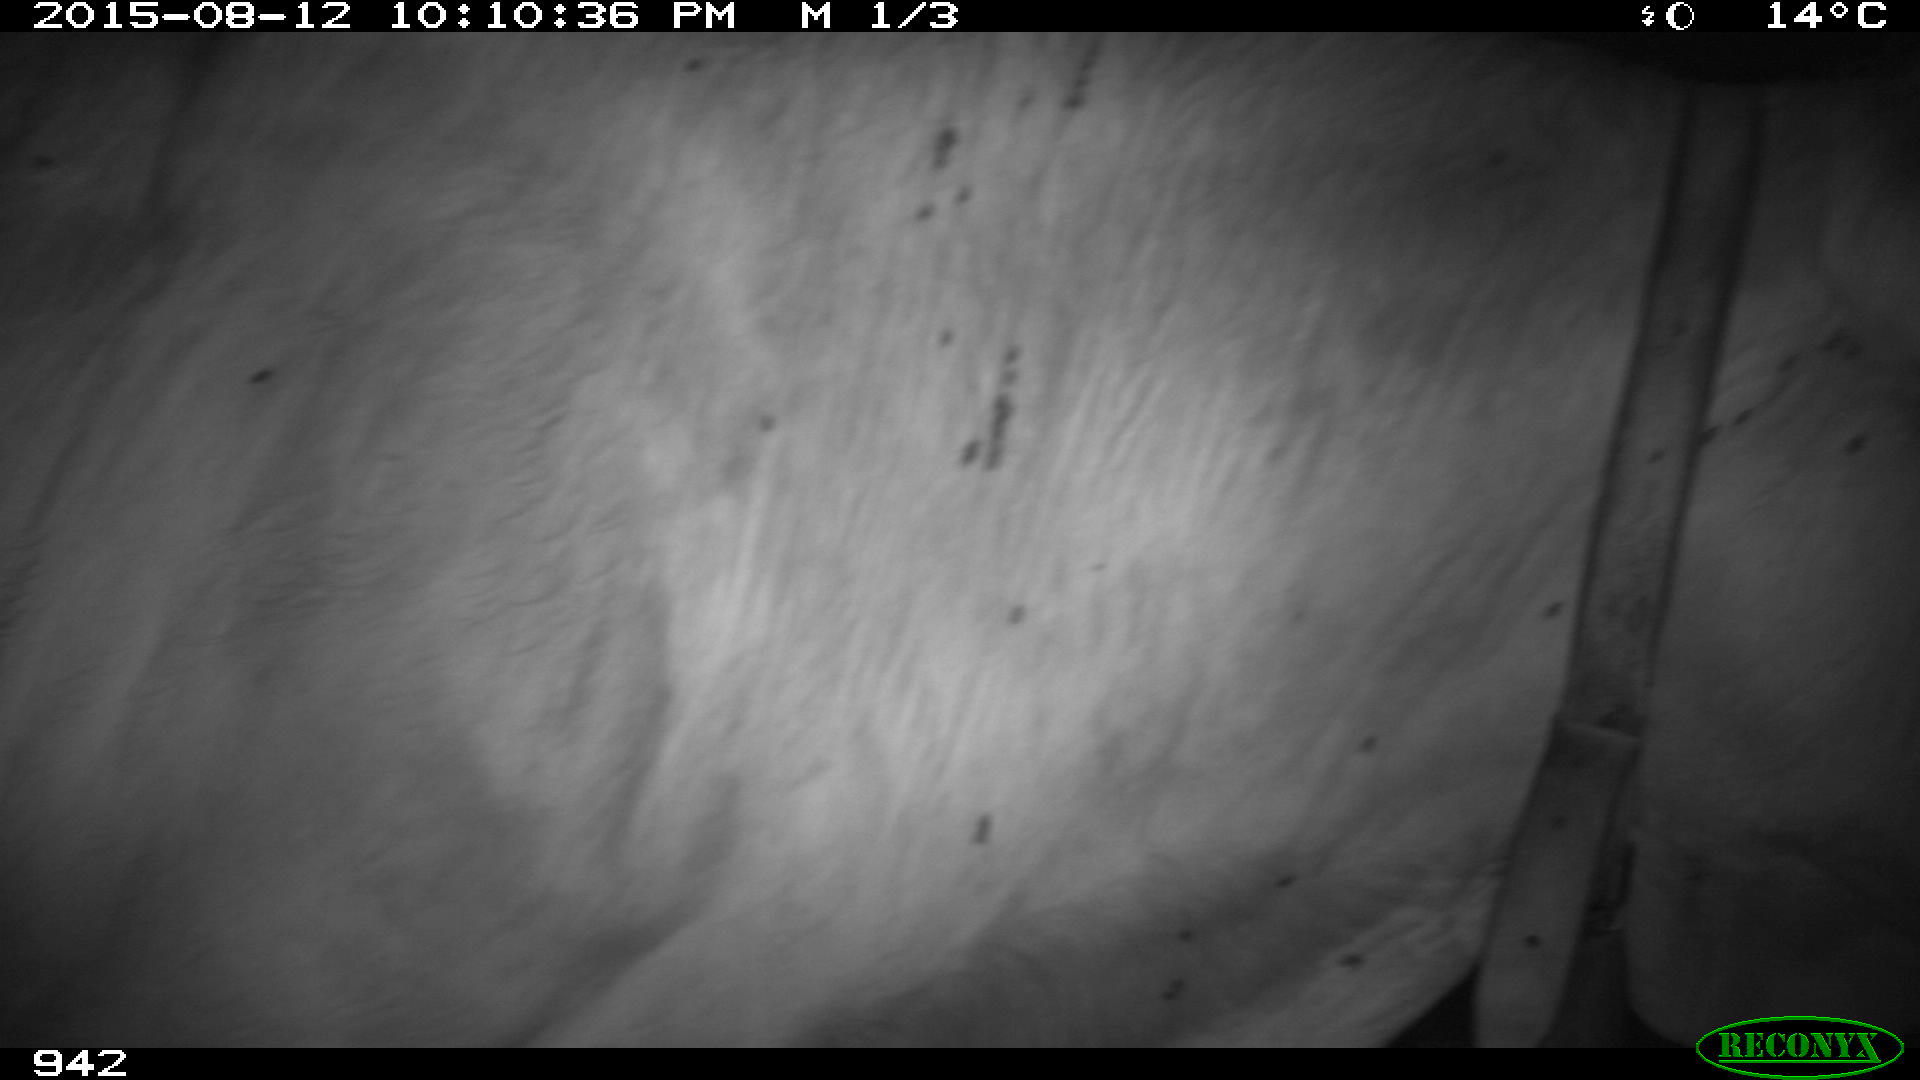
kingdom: Animalia
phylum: Chordata
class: Mammalia
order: Artiodactyla
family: Bovidae
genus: Bos
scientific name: Bos taurus
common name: Domesticated cattle
